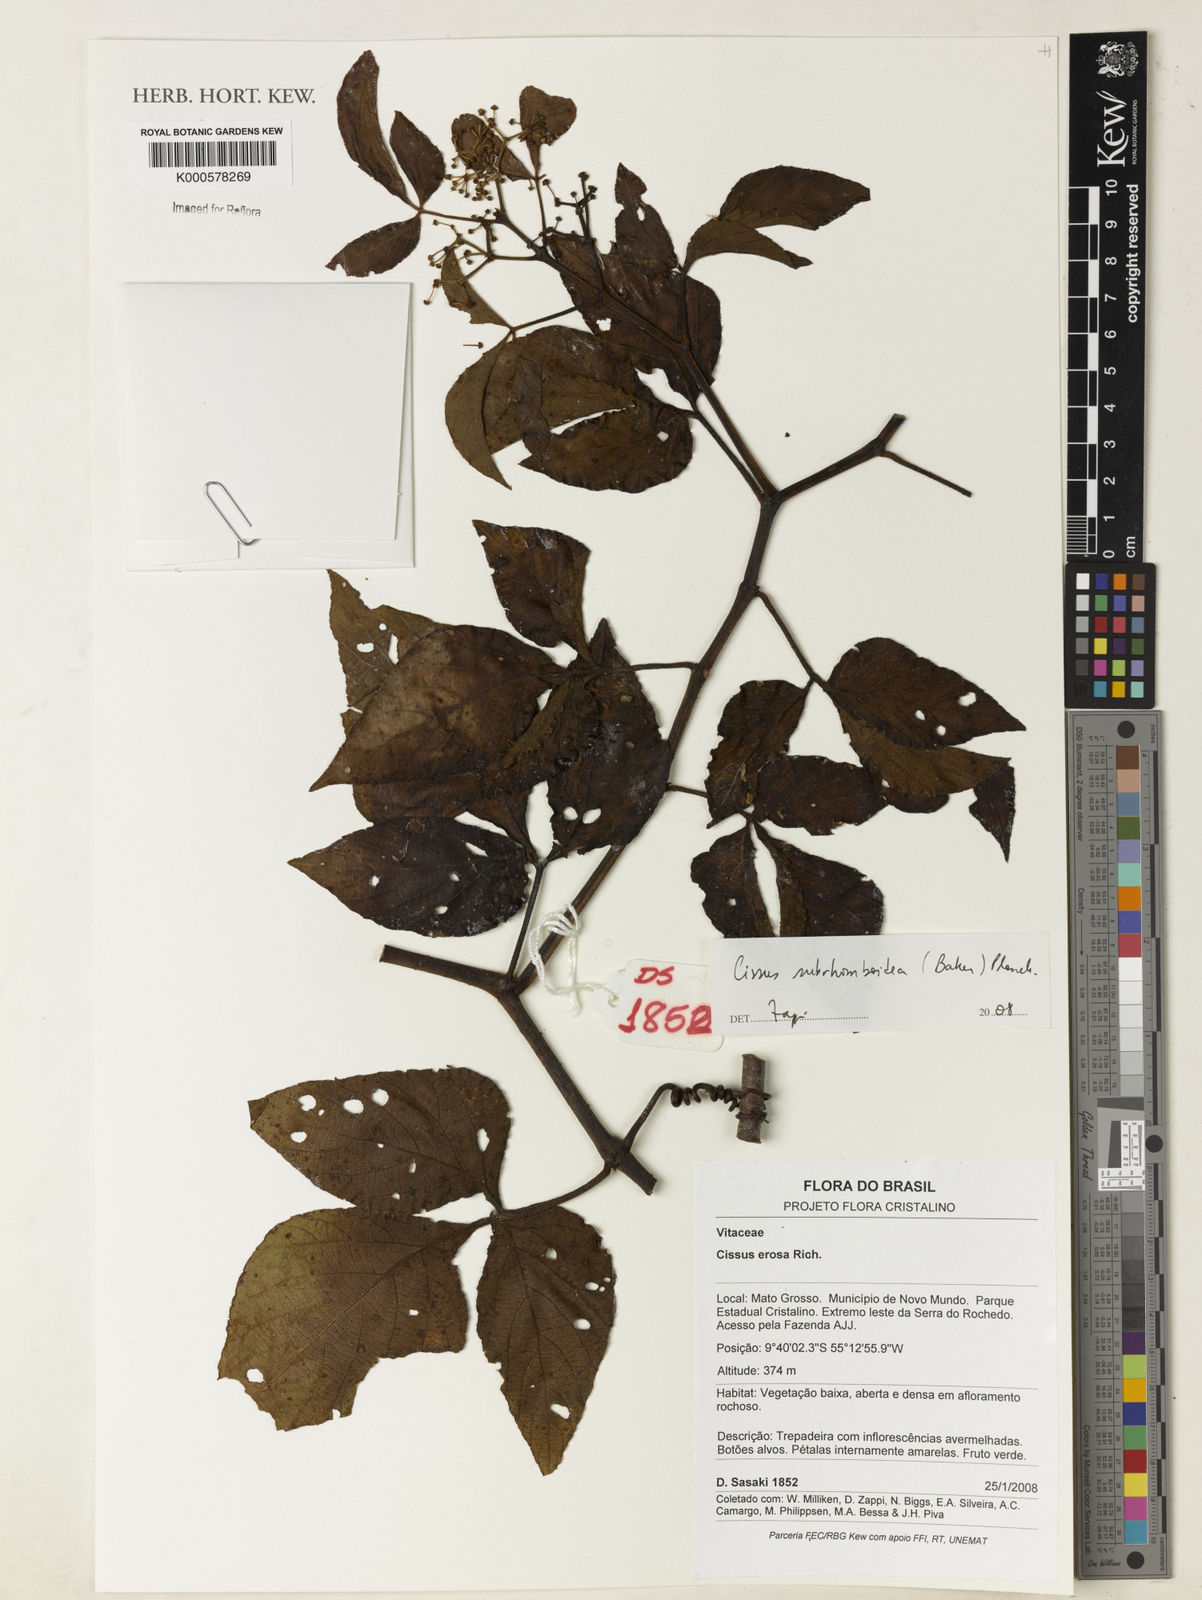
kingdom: Plantae
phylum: Tracheophyta
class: Magnoliopsida
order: Vitales
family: Vitaceae
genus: Cissus
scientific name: Cissus subrhomboidea
